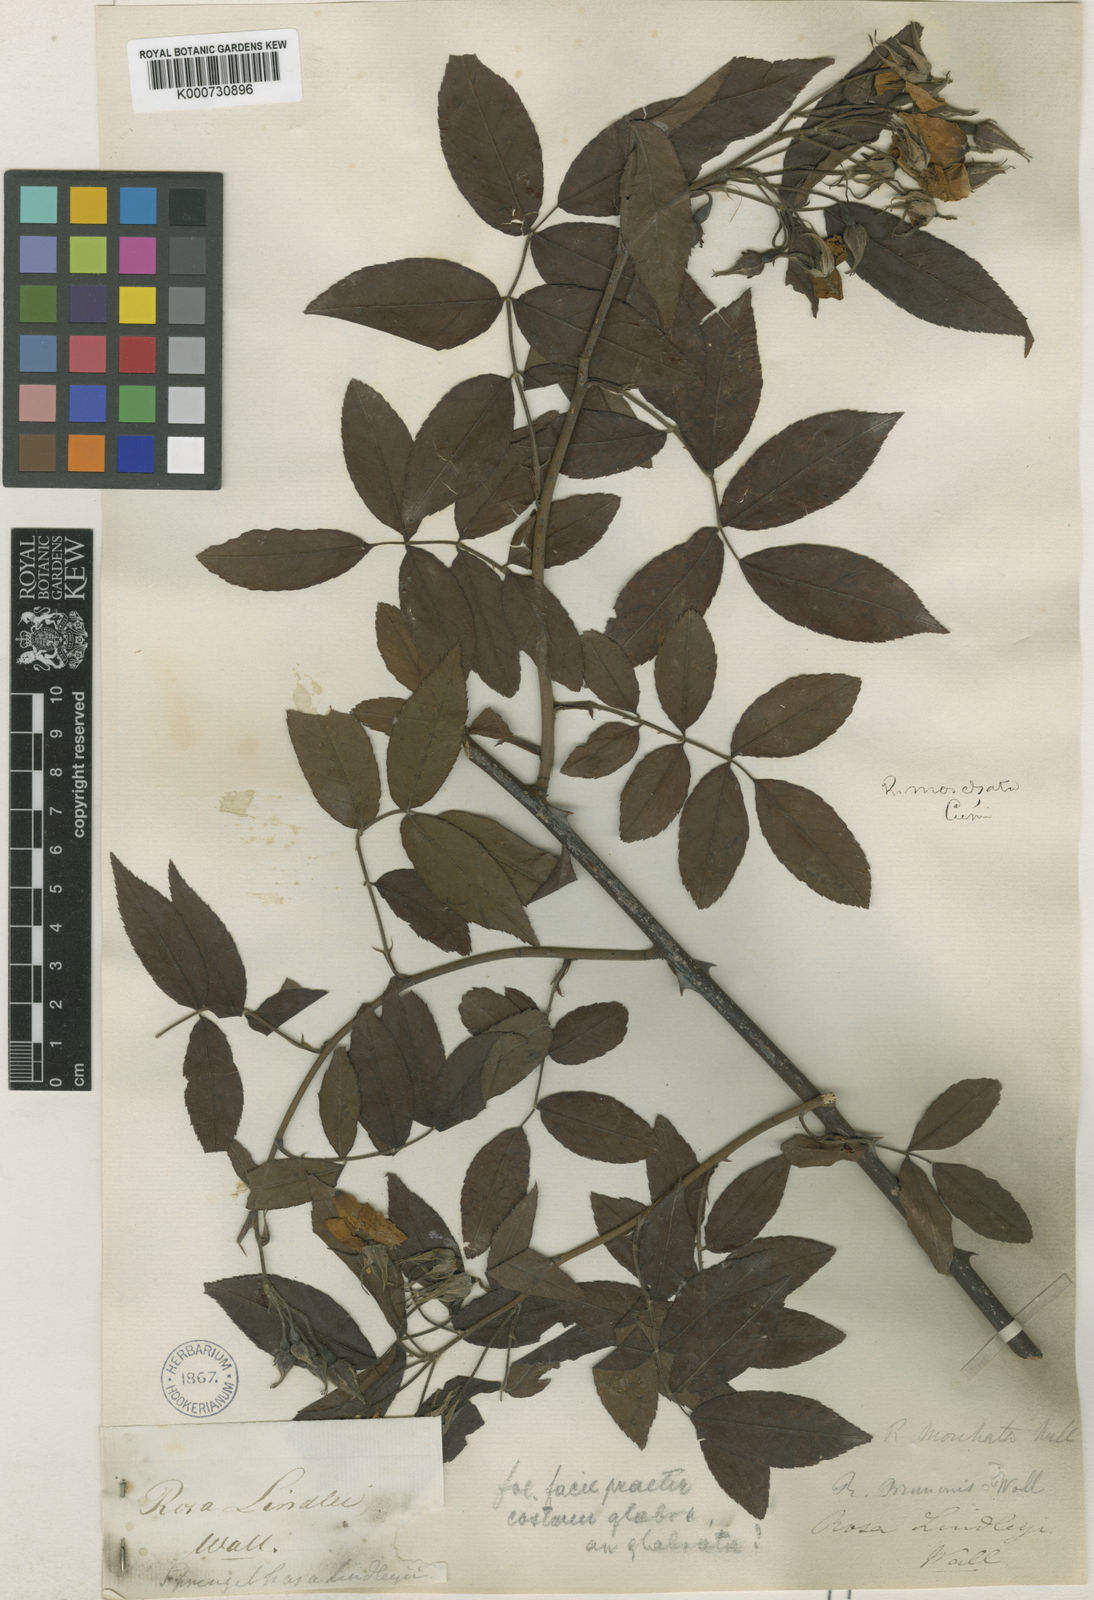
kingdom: Plantae
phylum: Tracheophyta
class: Magnoliopsida
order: Rosales
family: Rosaceae
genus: Rosa
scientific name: Rosa moschata
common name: Musk rose
